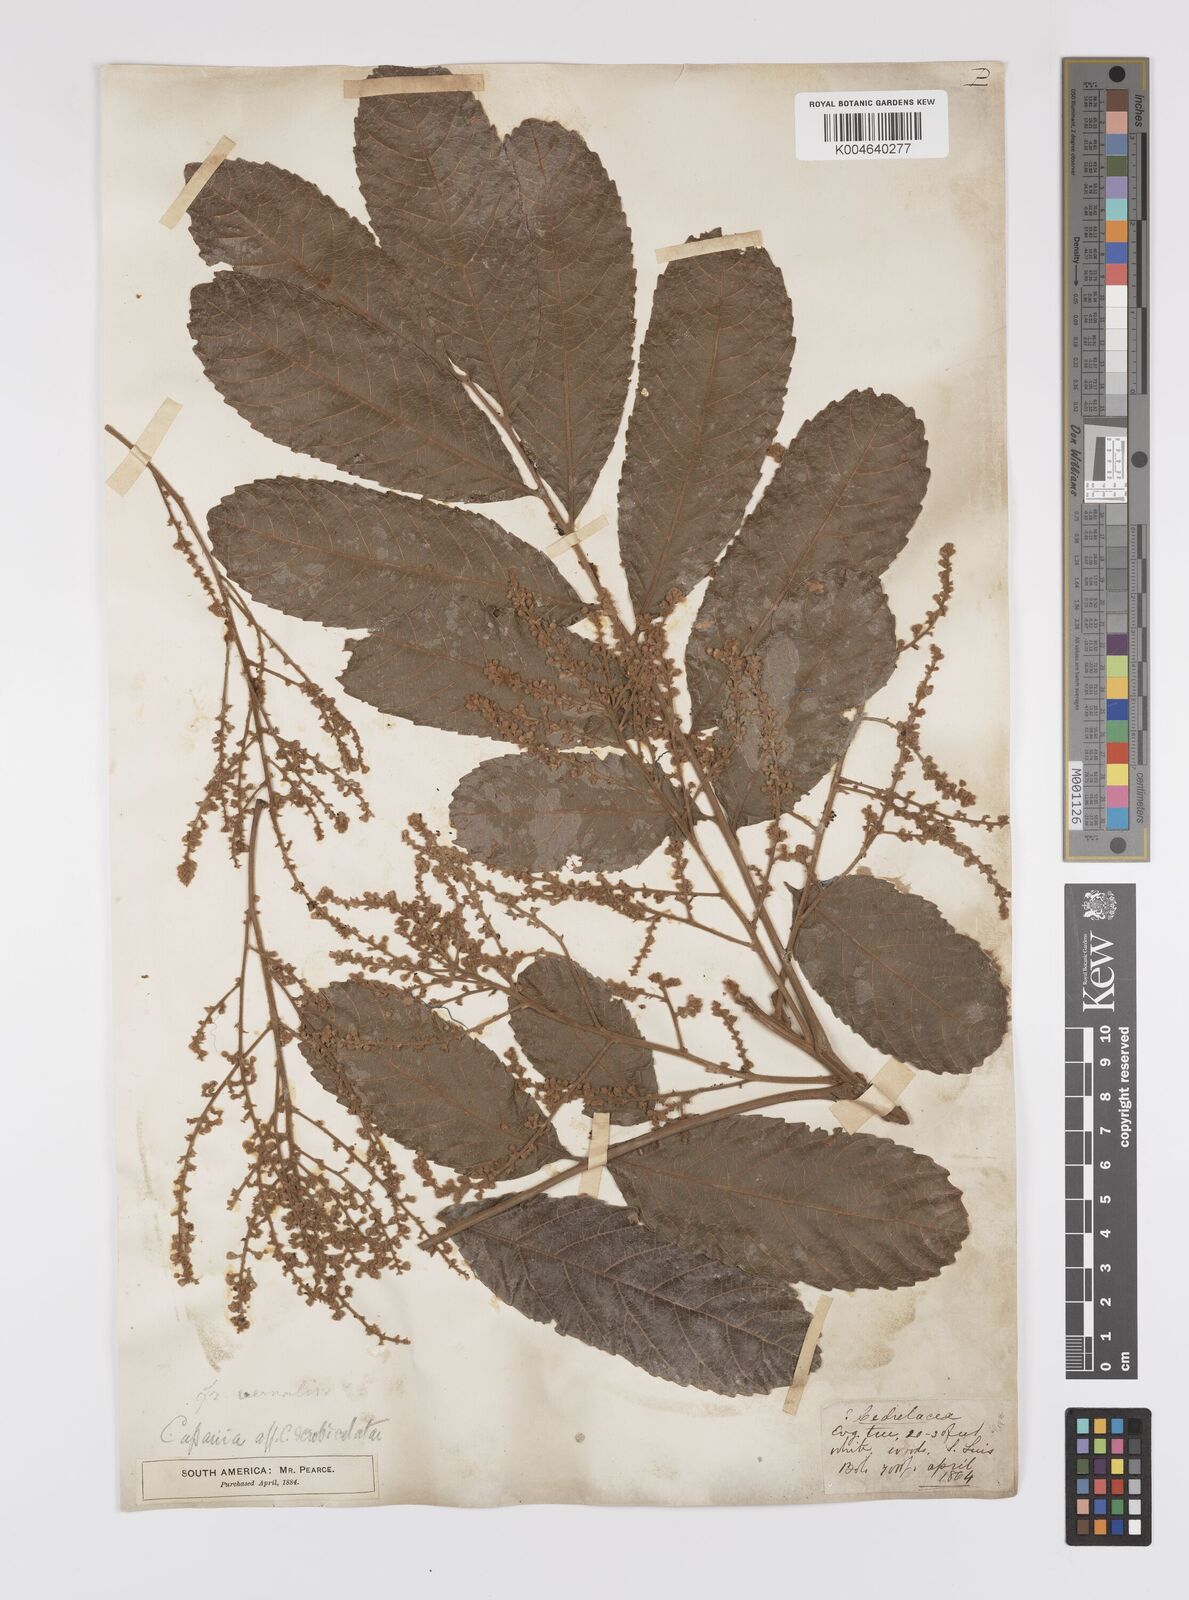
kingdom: Plantae
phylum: Tracheophyta
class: Magnoliopsida
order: Sapindales
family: Sapindaceae
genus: Cupania
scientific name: Cupania
